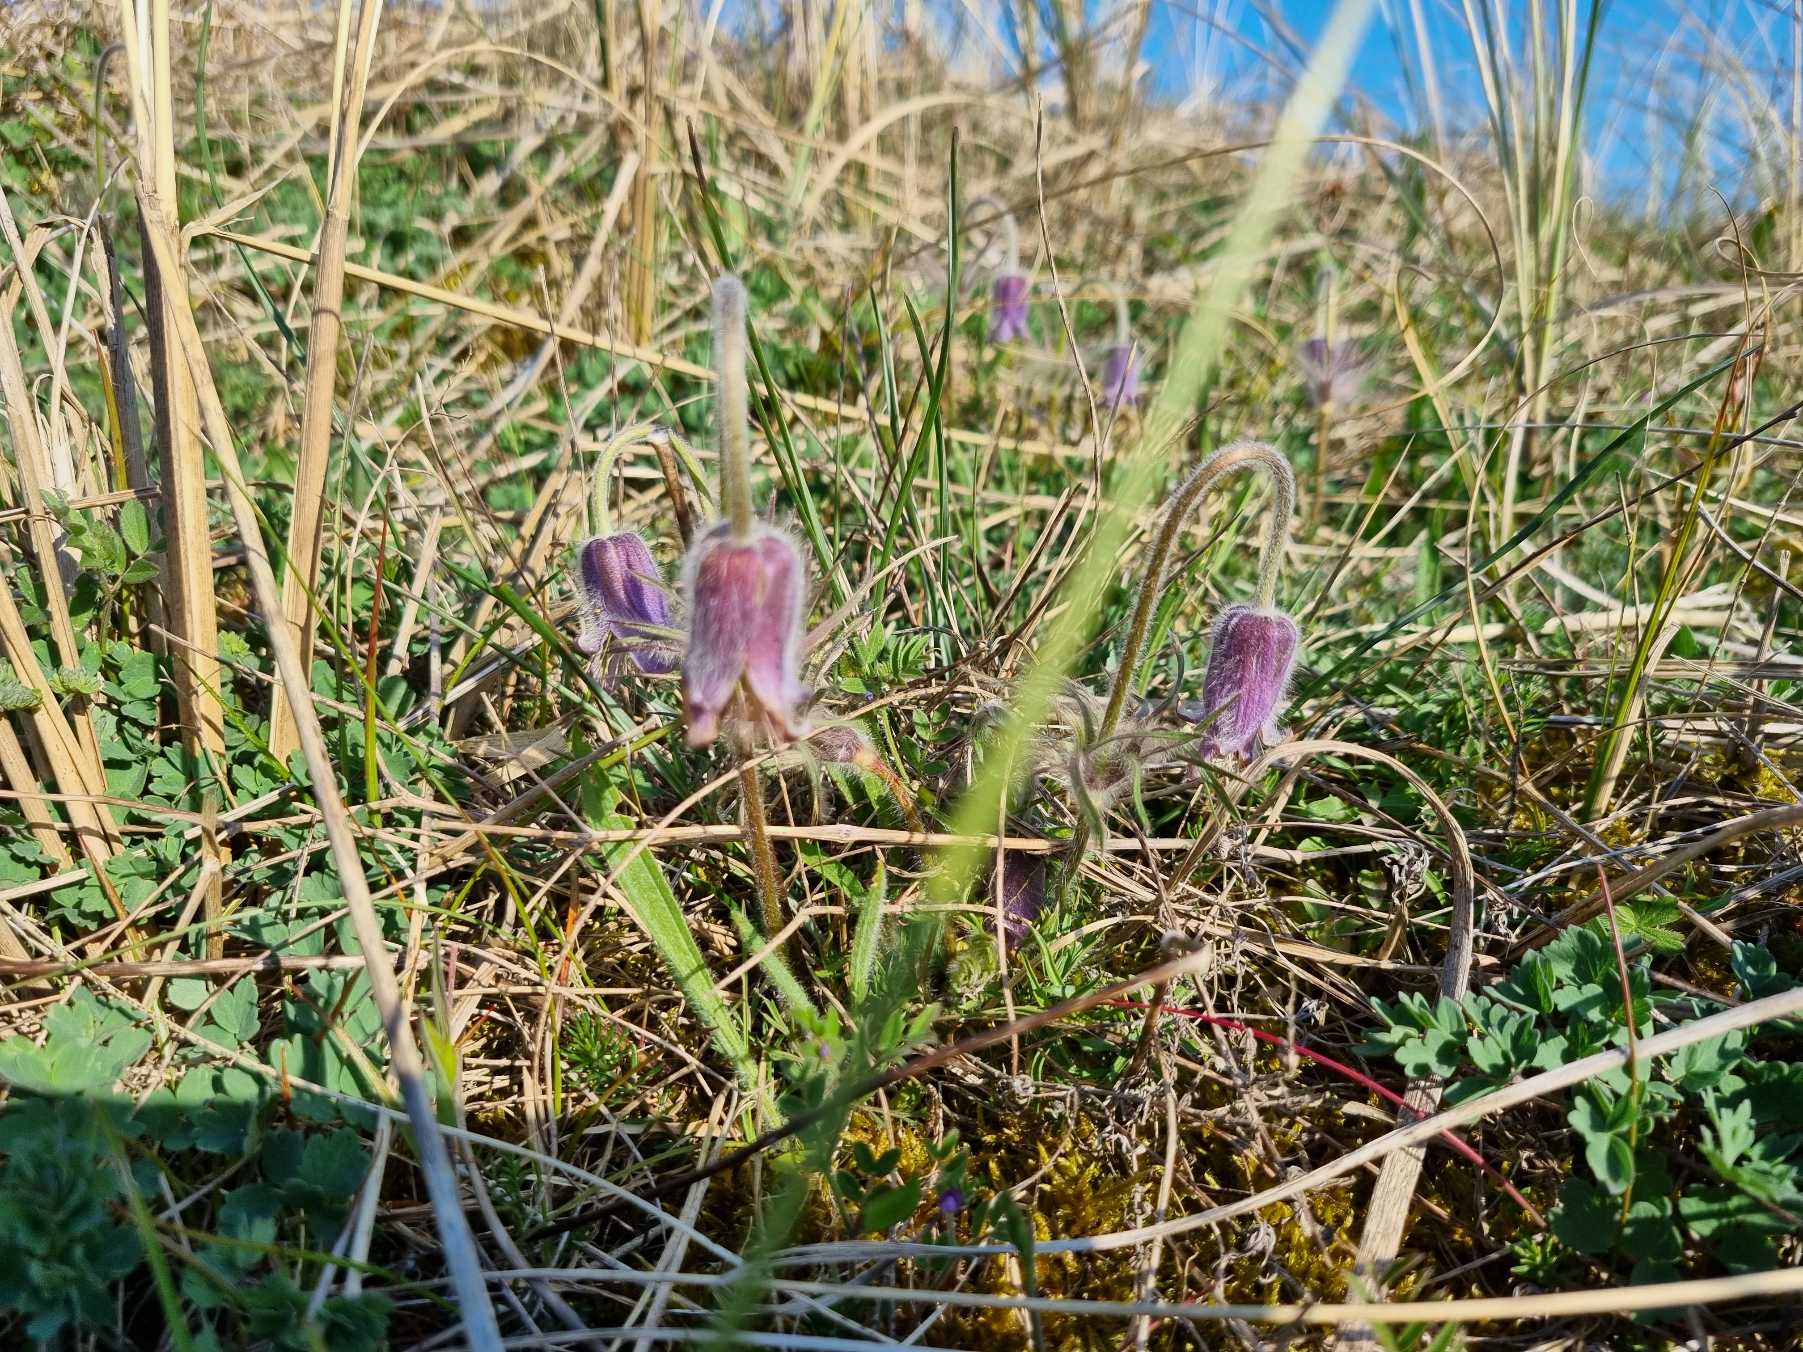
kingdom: Plantae
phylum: Tracheophyta
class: Magnoliopsida
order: Ranunculales
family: Ranunculaceae
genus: Pulsatilla
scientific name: Pulsatilla pratensis
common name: Nikkende kobjælde
